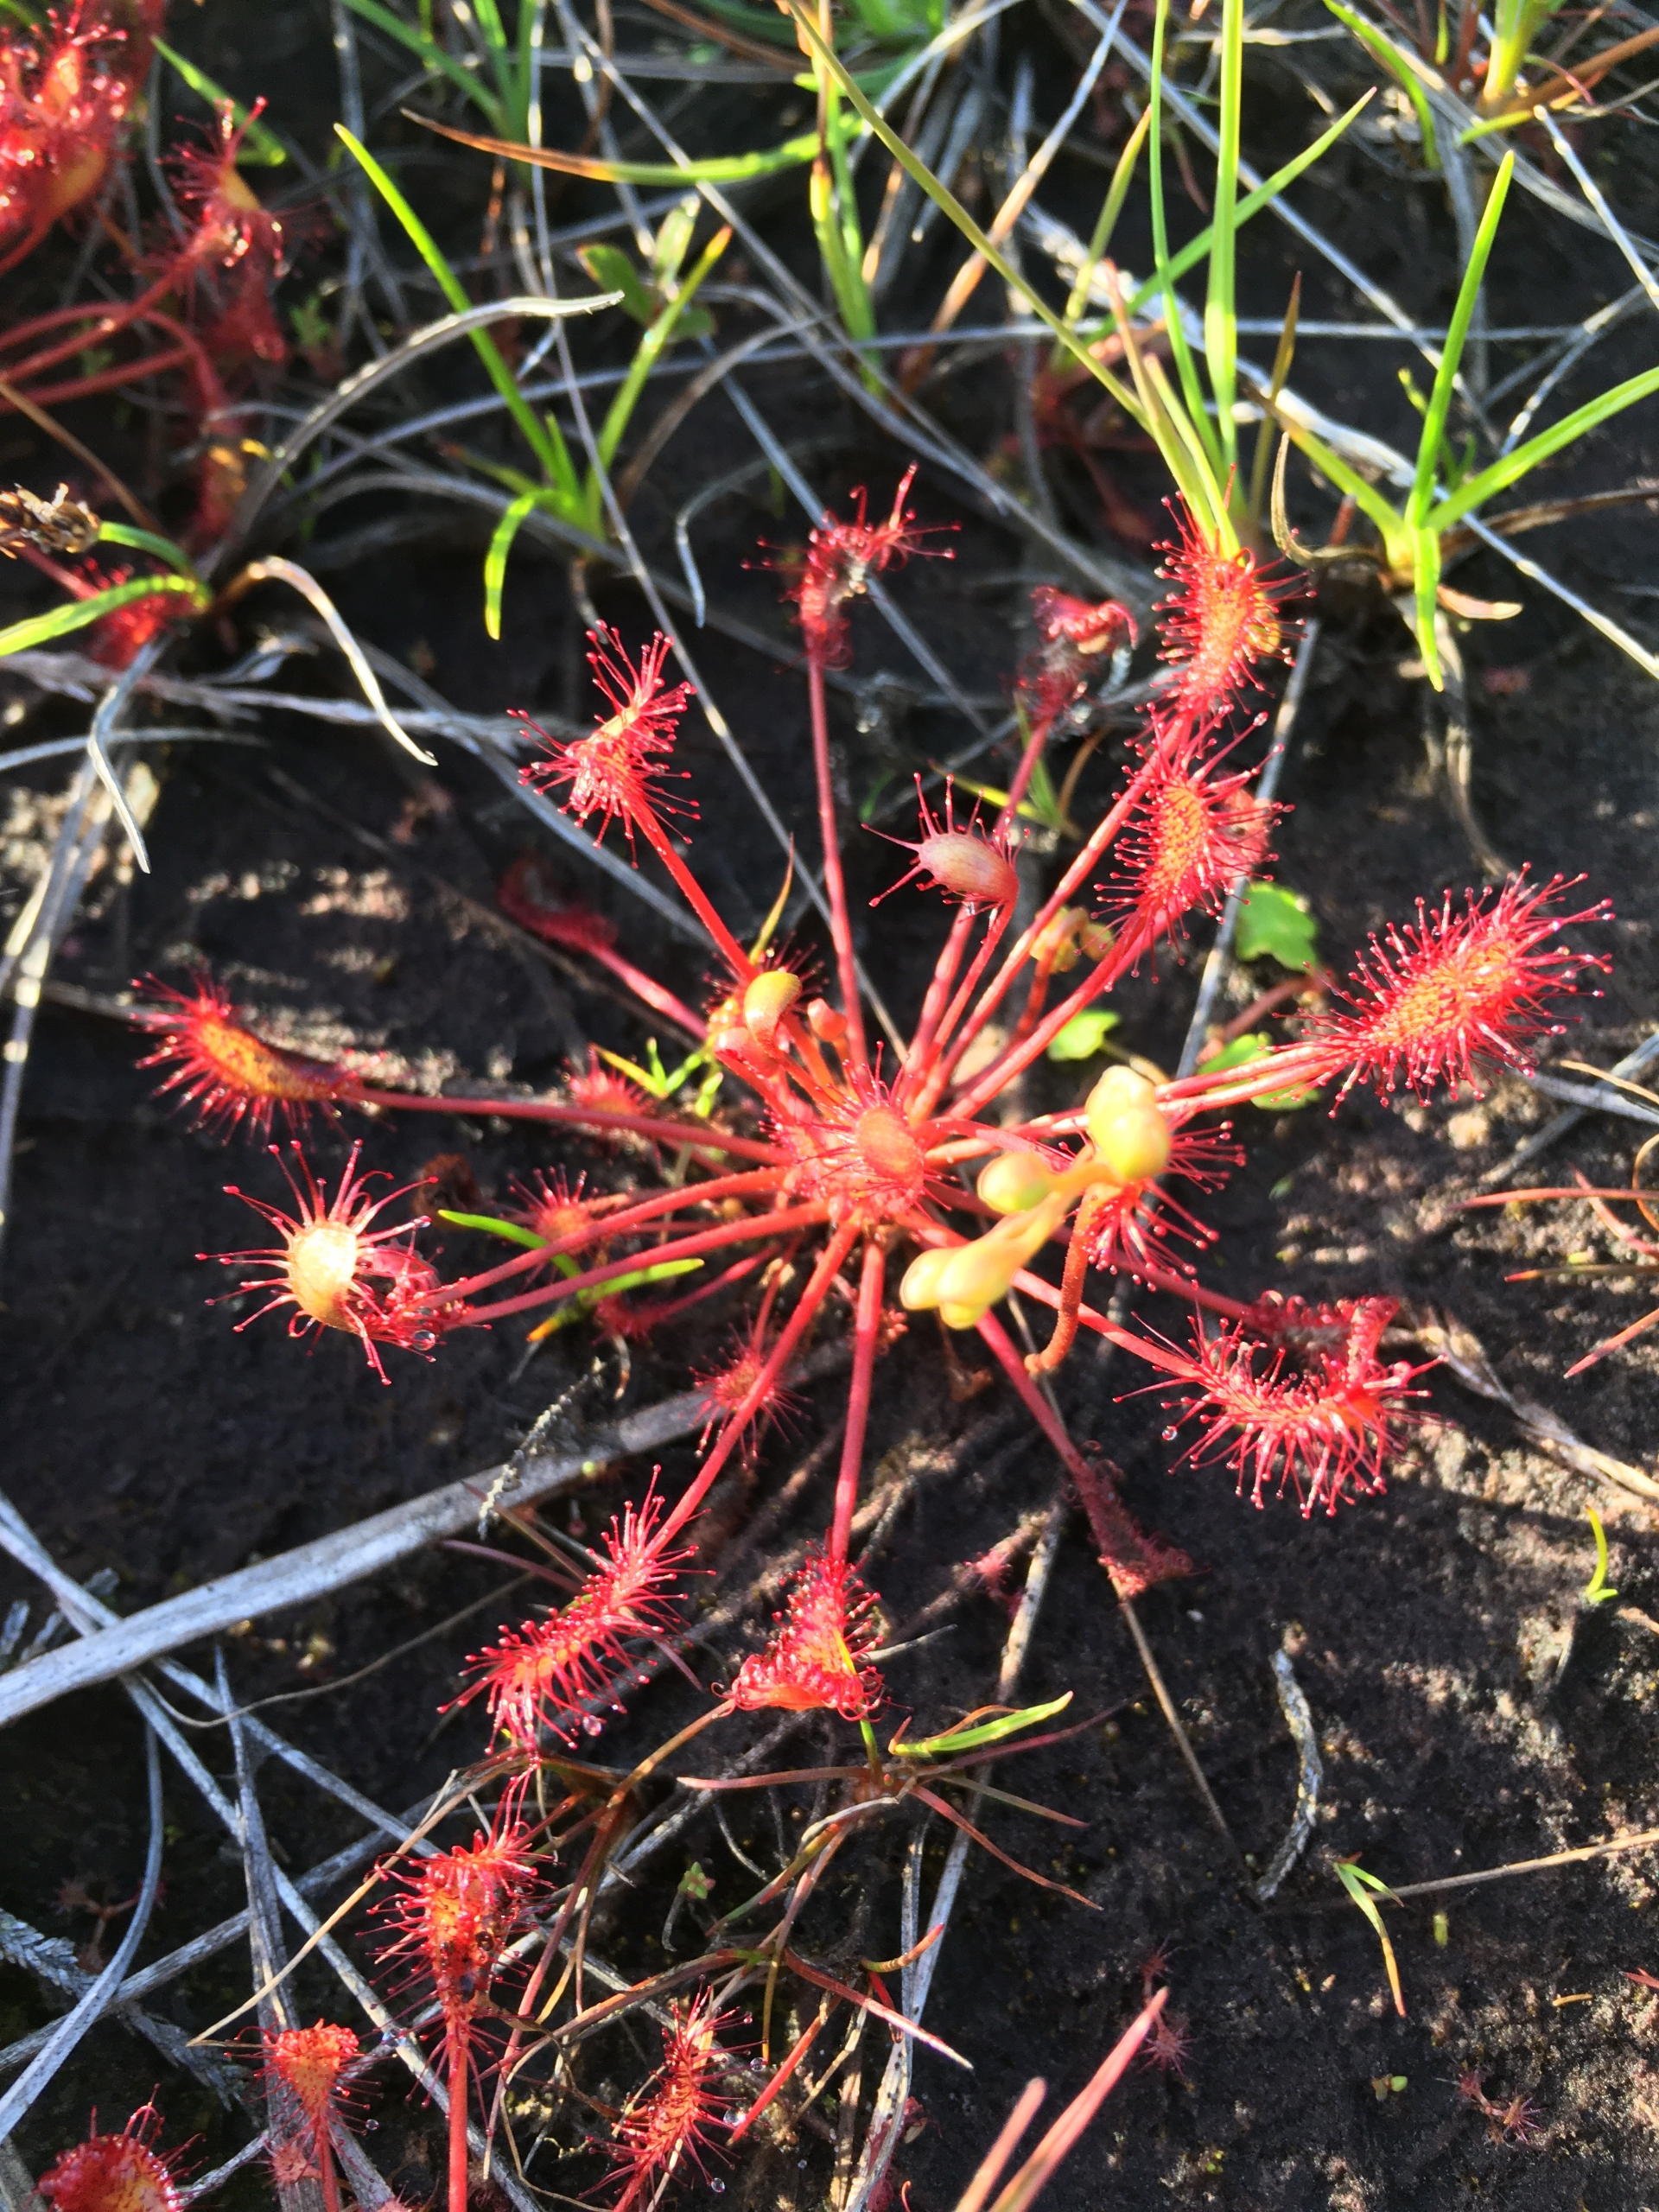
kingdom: Plantae
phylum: Tracheophyta
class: Magnoliopsida
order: Caryophyllales
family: Droseraceae
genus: Drosera
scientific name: Drosera intermedia
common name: Liden soldug
